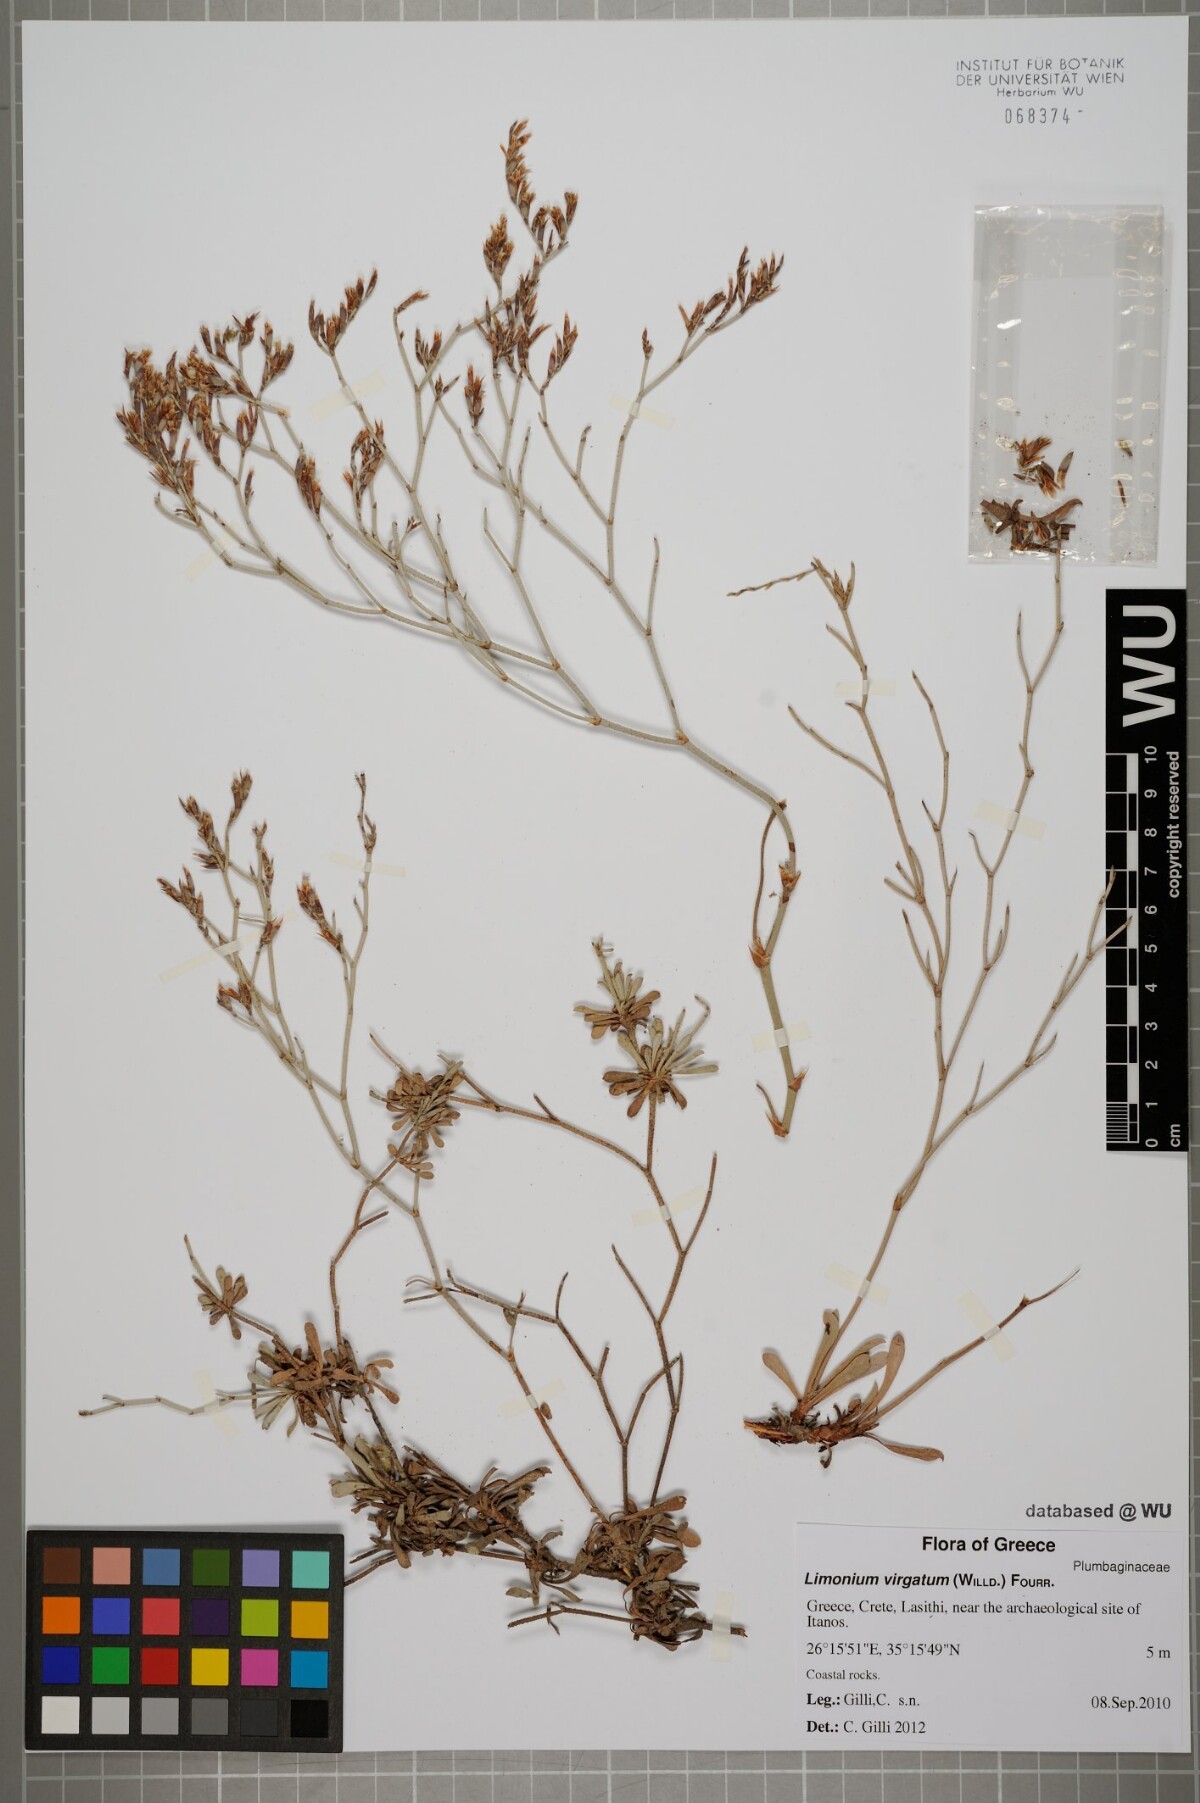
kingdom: Plantae
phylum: Tracheophyta
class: Magnoliopsida
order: Caryophyllales
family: Plumbaginaceae
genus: Limonium
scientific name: Limonium virgatum
